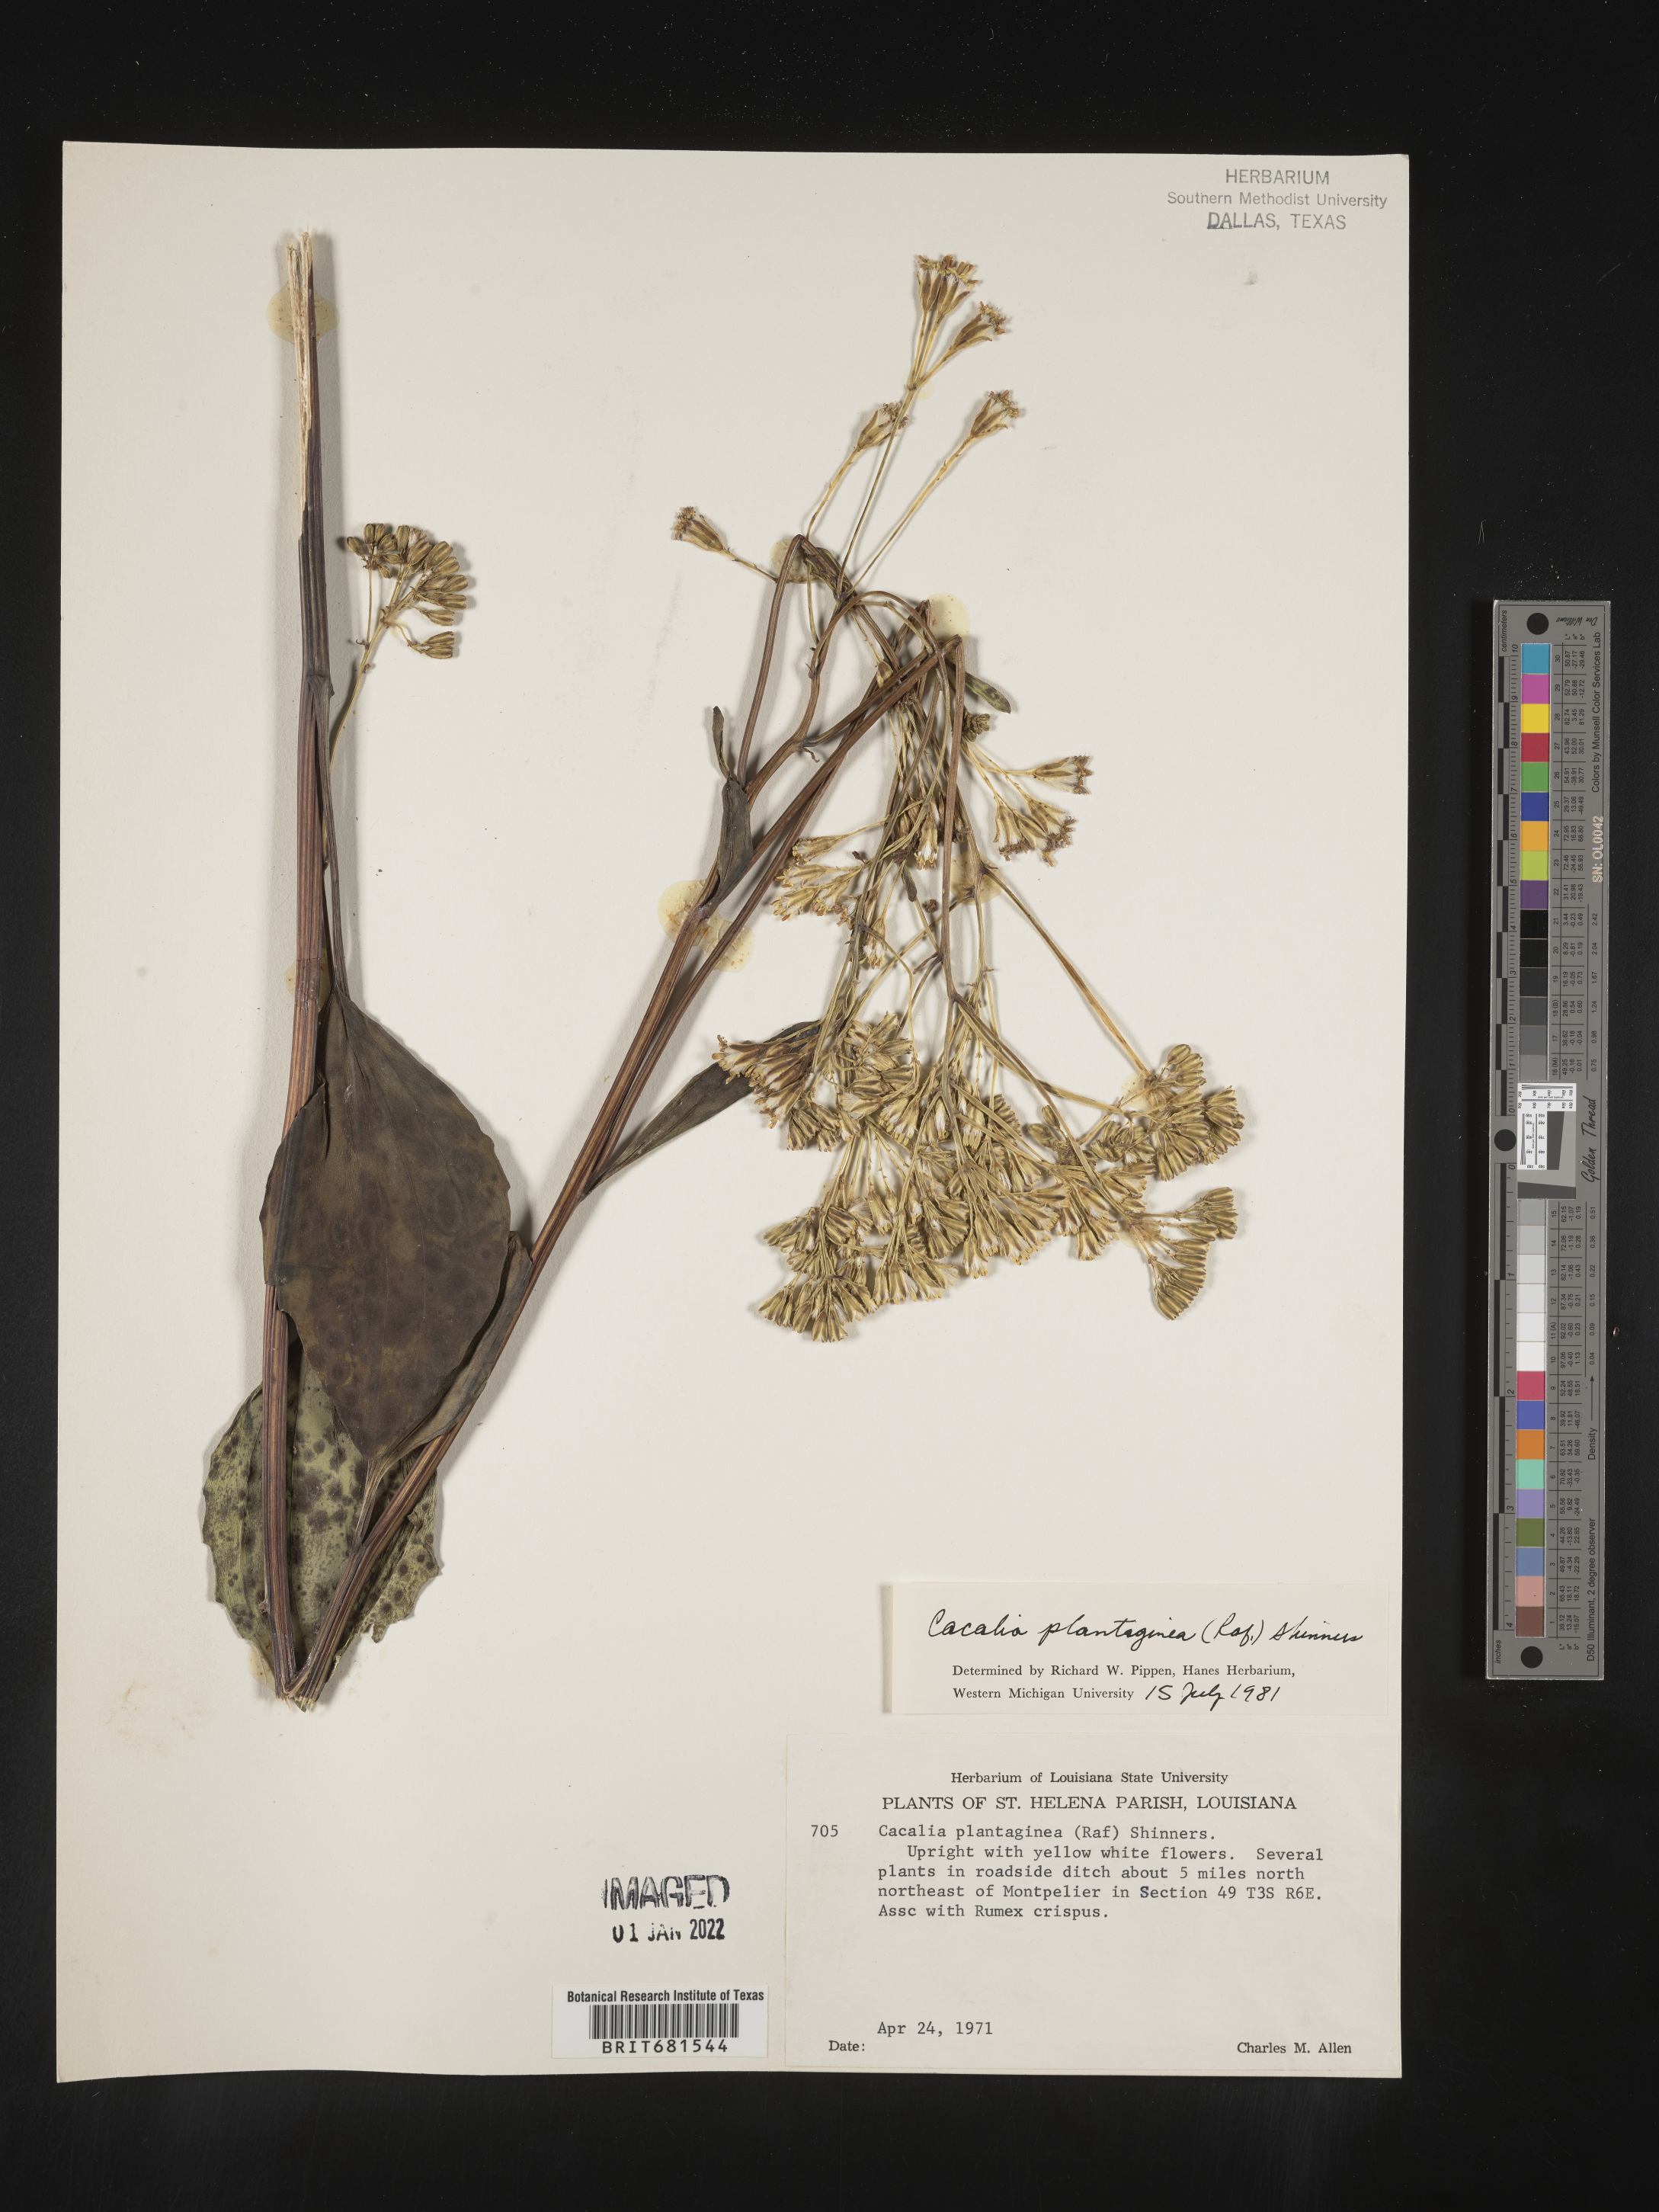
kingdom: Plantae
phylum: Tracheophyta
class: Magnoliopsida
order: Asterales
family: Asteraceae
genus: Arnoglossum
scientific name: Arnoglossum plantagineum
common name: Groove-stemmed indian-plantain
